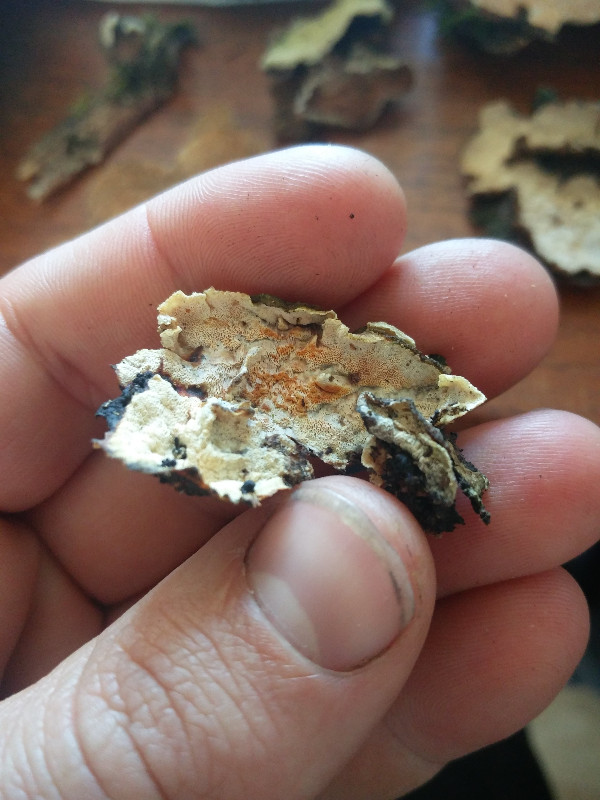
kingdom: Fungi
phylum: Basidiomycota
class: Agaricomycetes
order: Polyporales
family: Incrustoporiaceae
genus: Skeletocutis
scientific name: Skeletocutis amorpha
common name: orange krystalporesvamp
